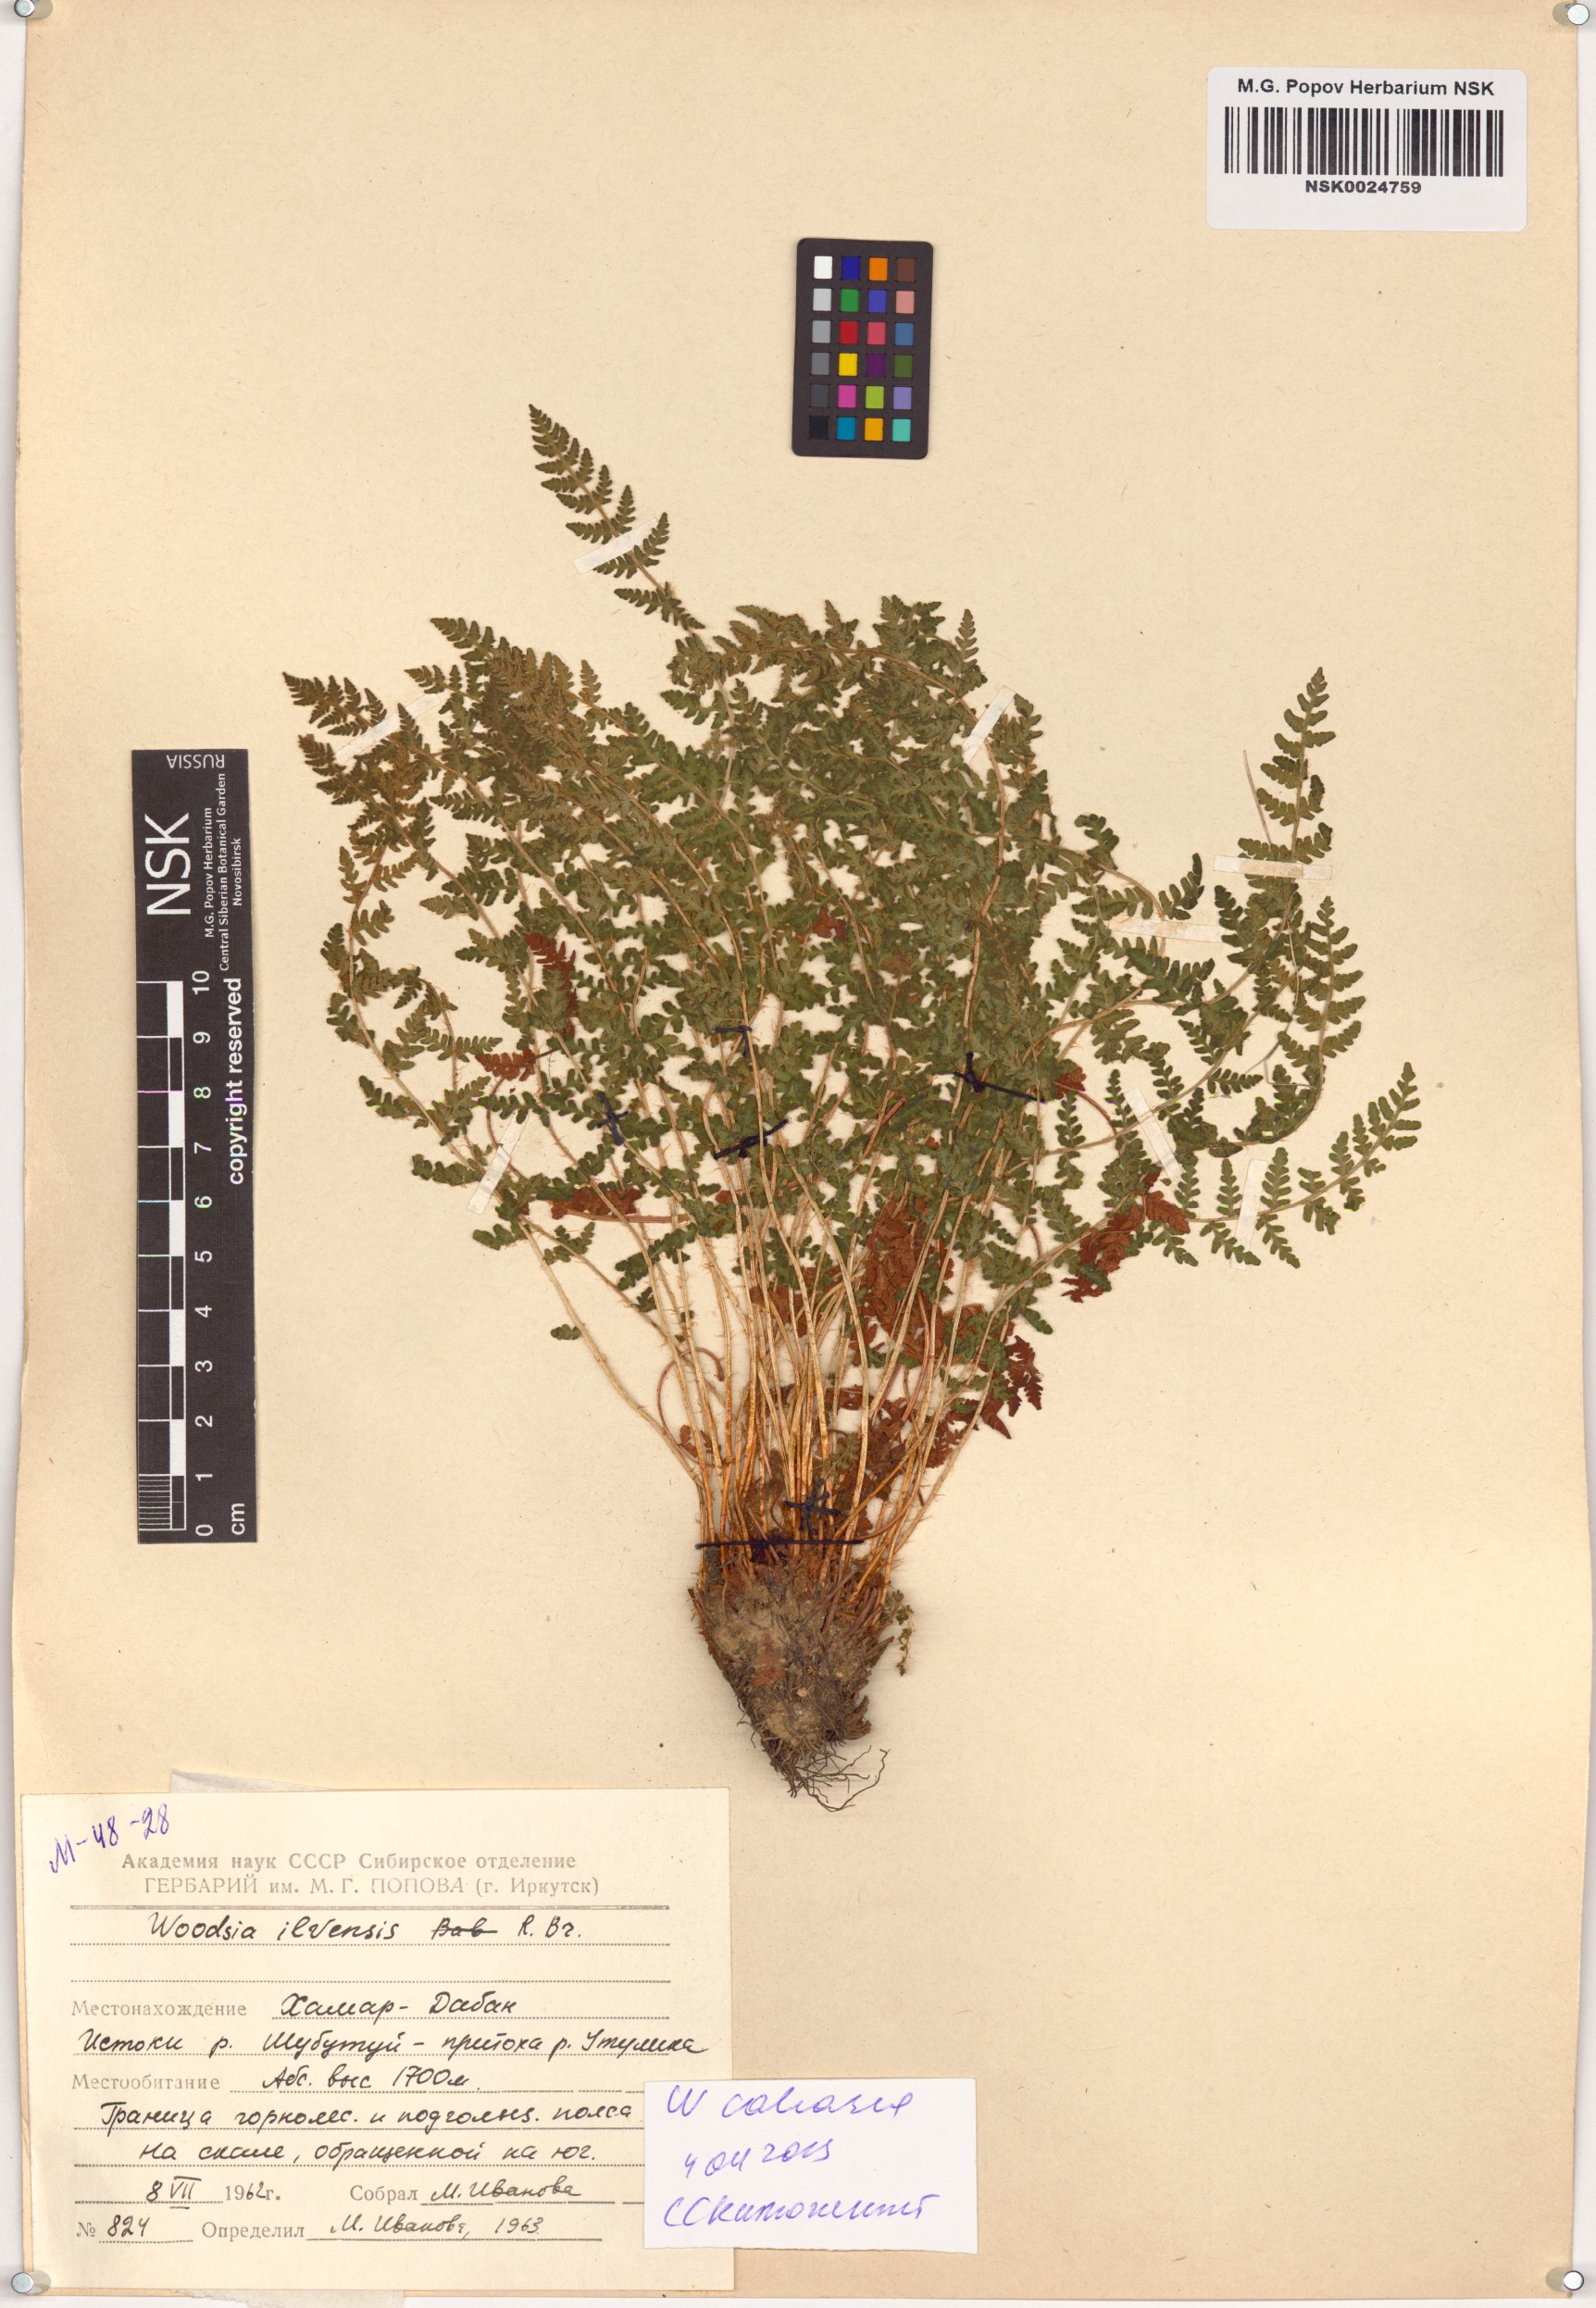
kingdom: Plantae
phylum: Tracheophyta
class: Polypodiopsida
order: Polypodiales
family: Woodsiaceae
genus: Woodsia
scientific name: Woodsia calcarea
